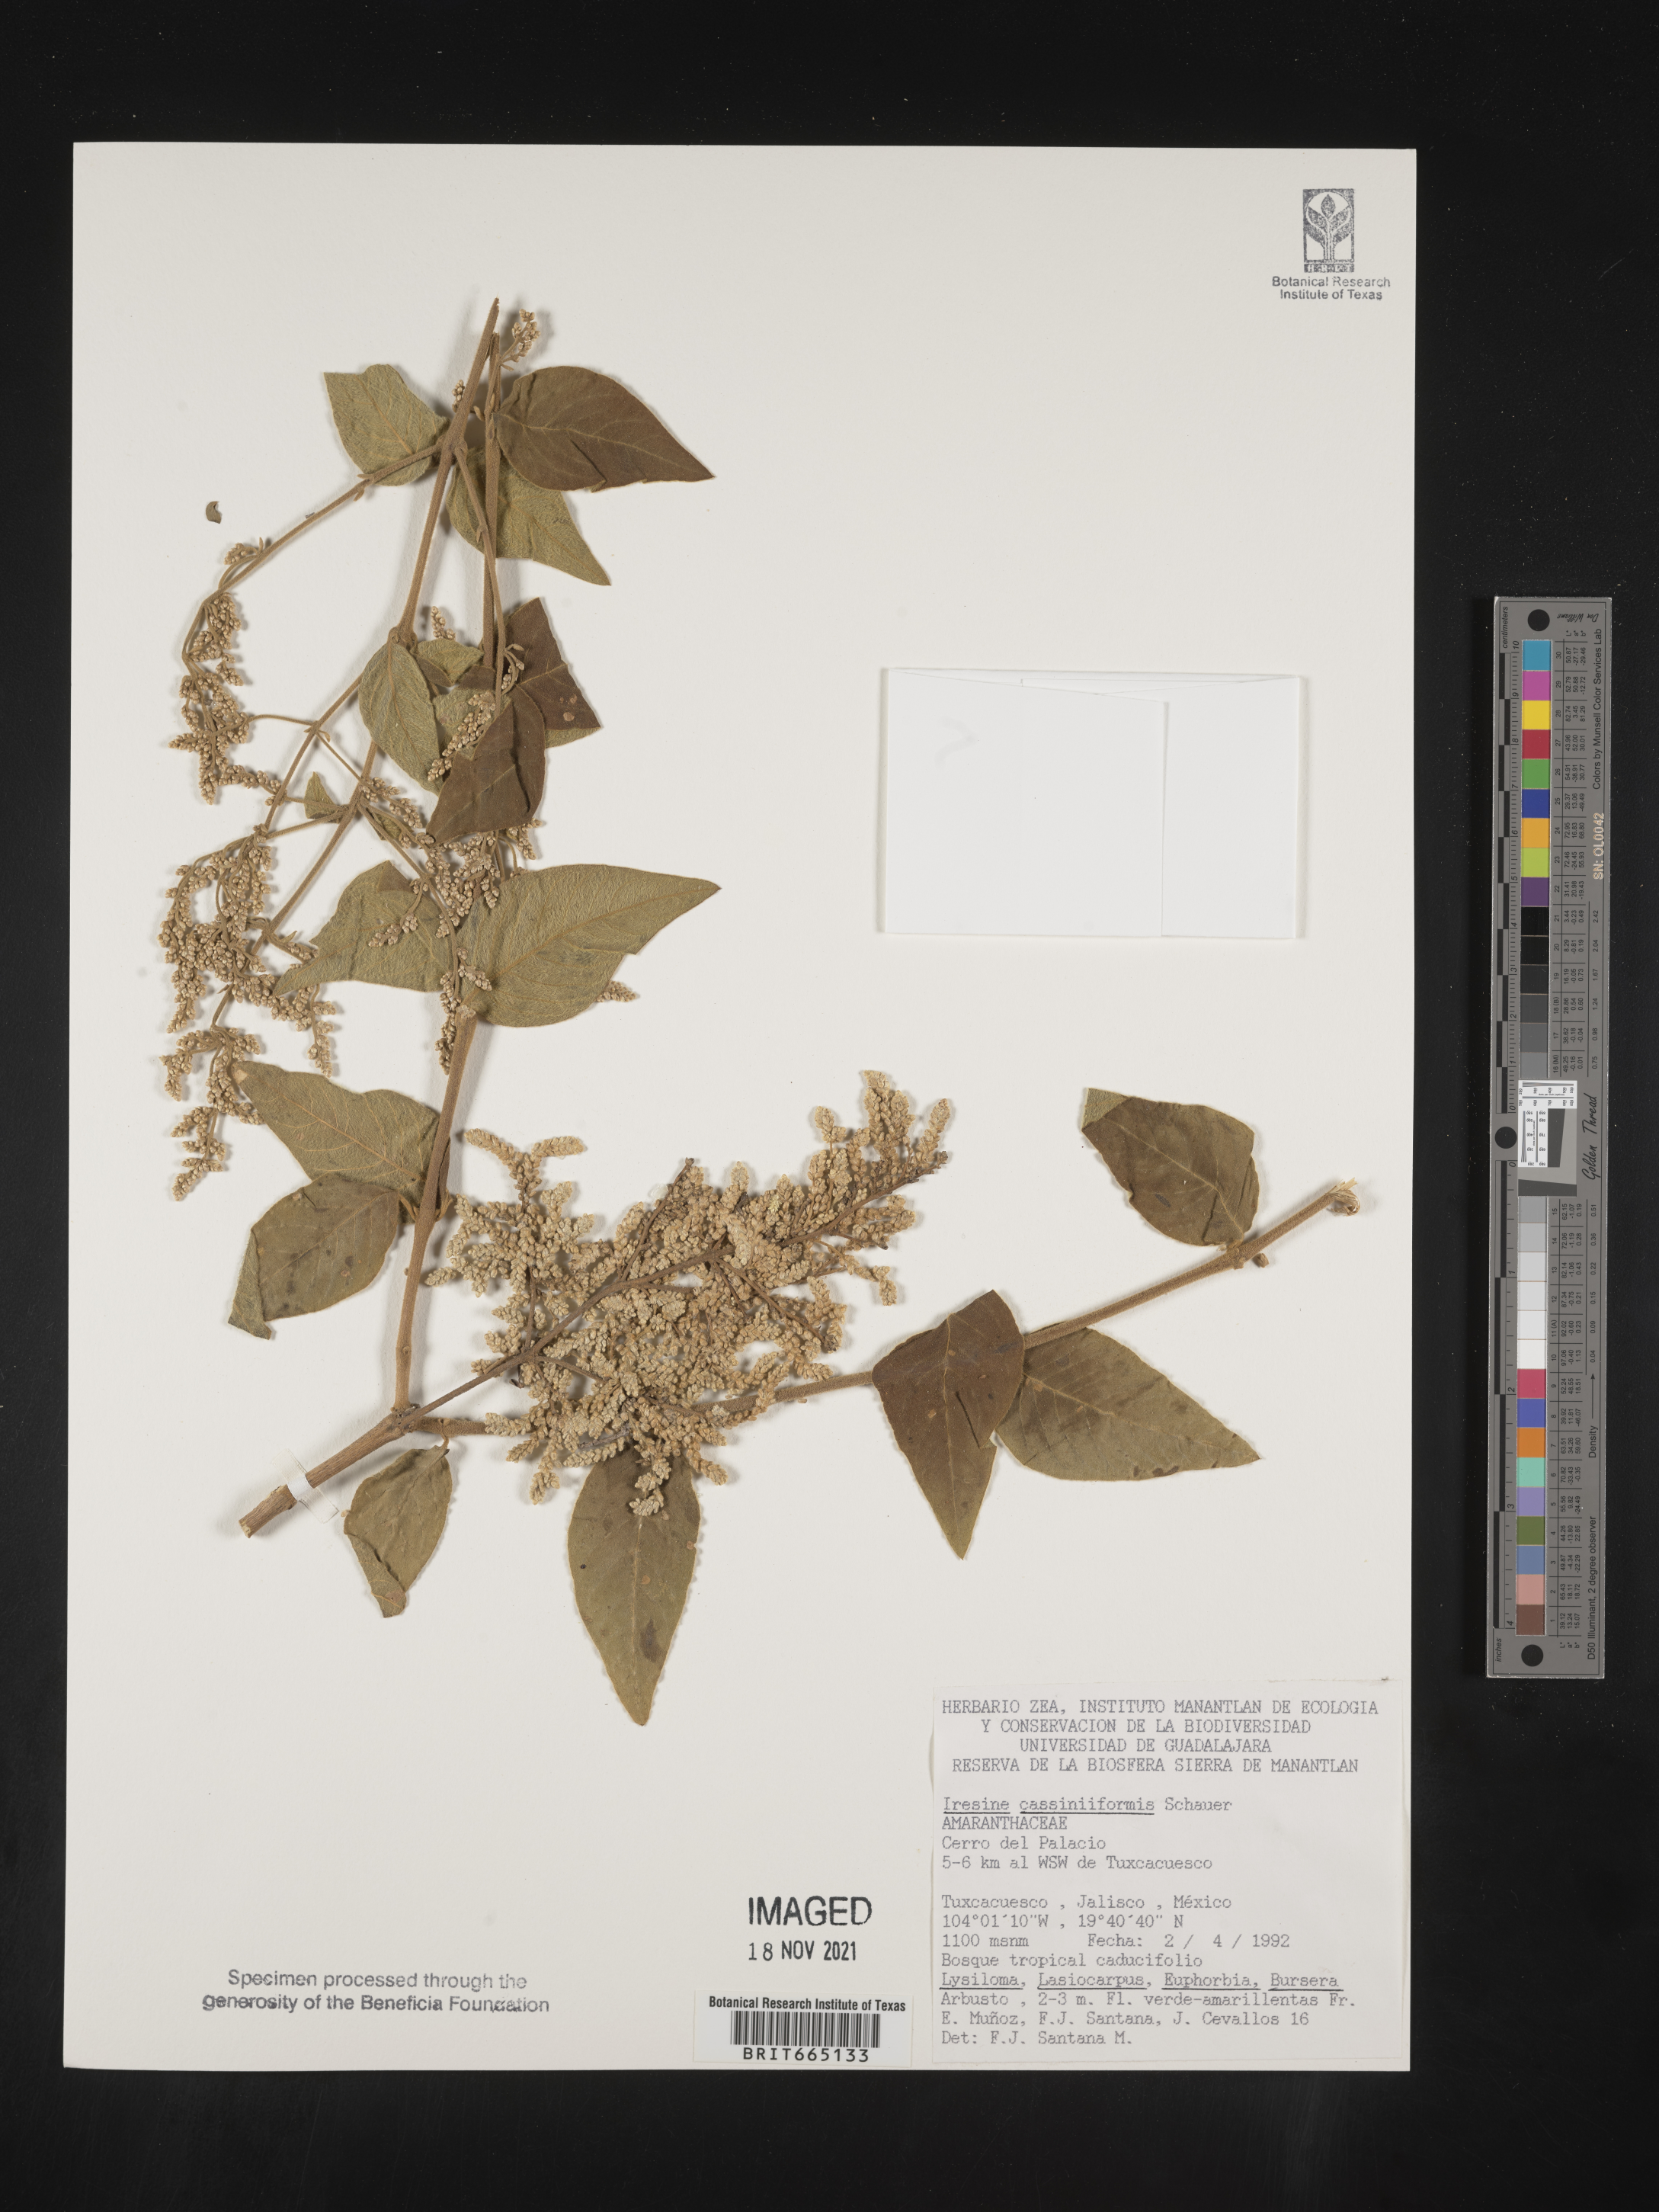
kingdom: Plantae
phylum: Tracheophyta
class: Magnoliopsida
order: Caryophyllales
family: Amaranthaceae
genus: Iresine
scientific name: Iresine
